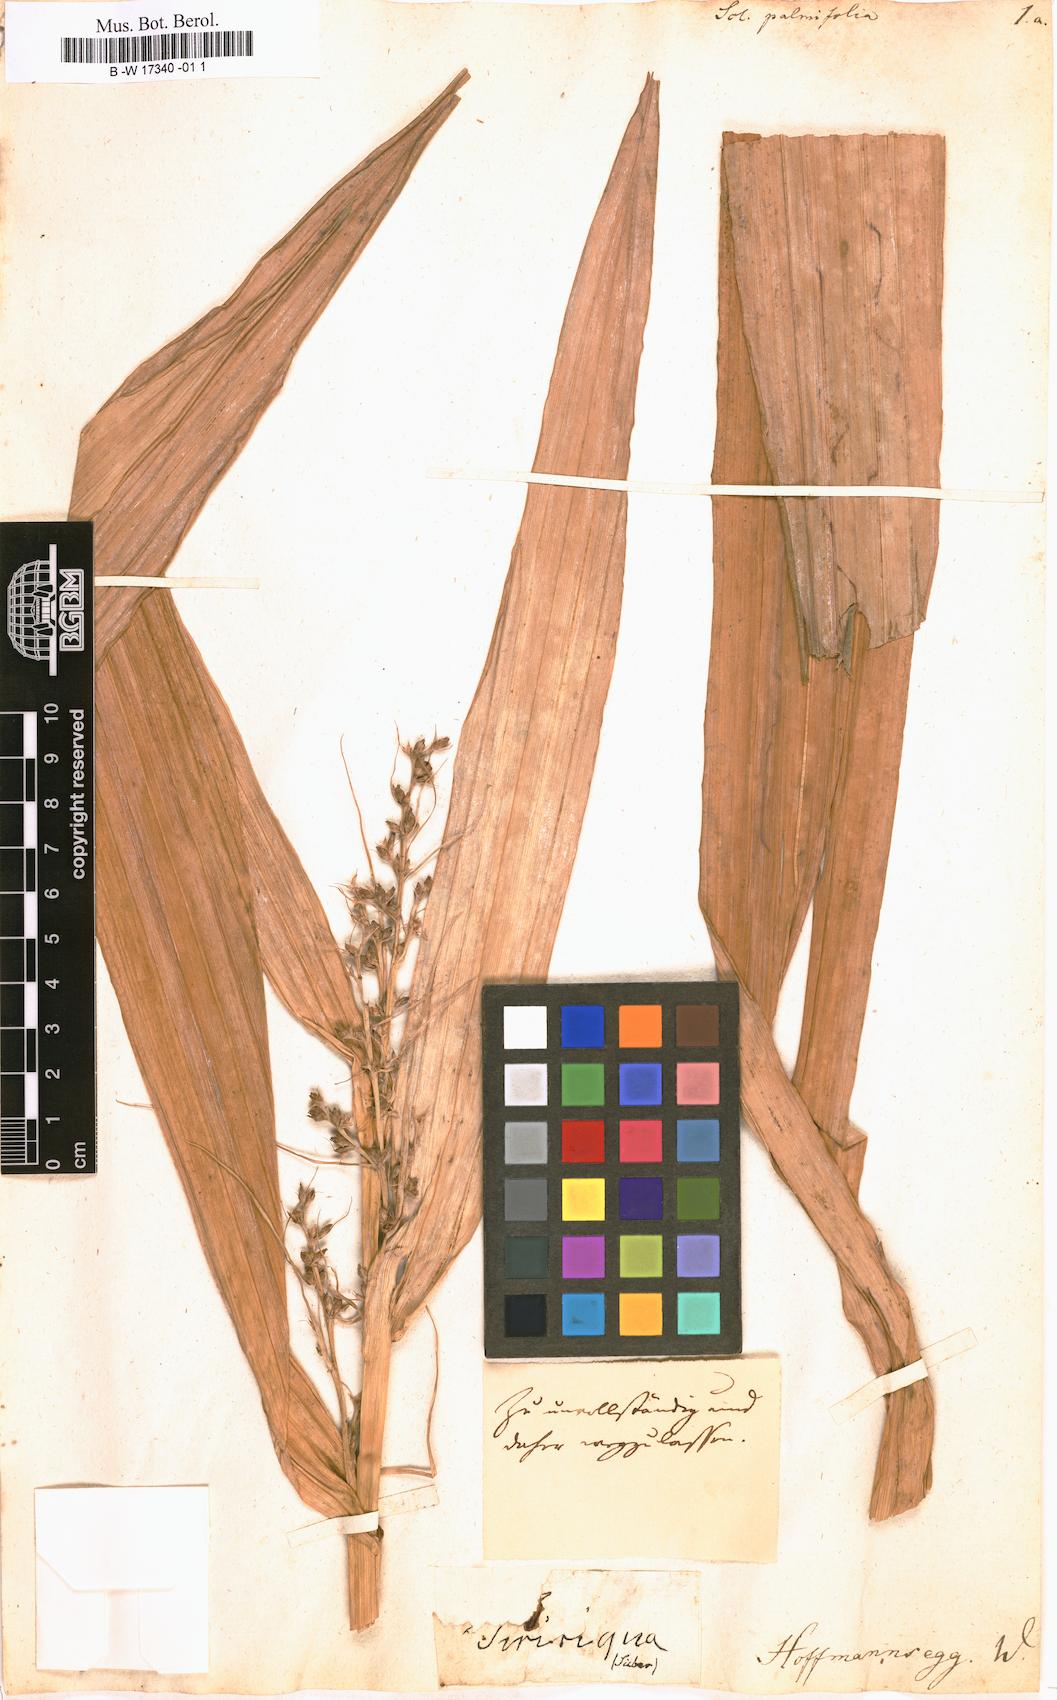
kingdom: Plantae
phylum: Tracheophyta
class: Liliopsida
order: Poales
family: Cyperaceae
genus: Scleria
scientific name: Scleria macrophylla
